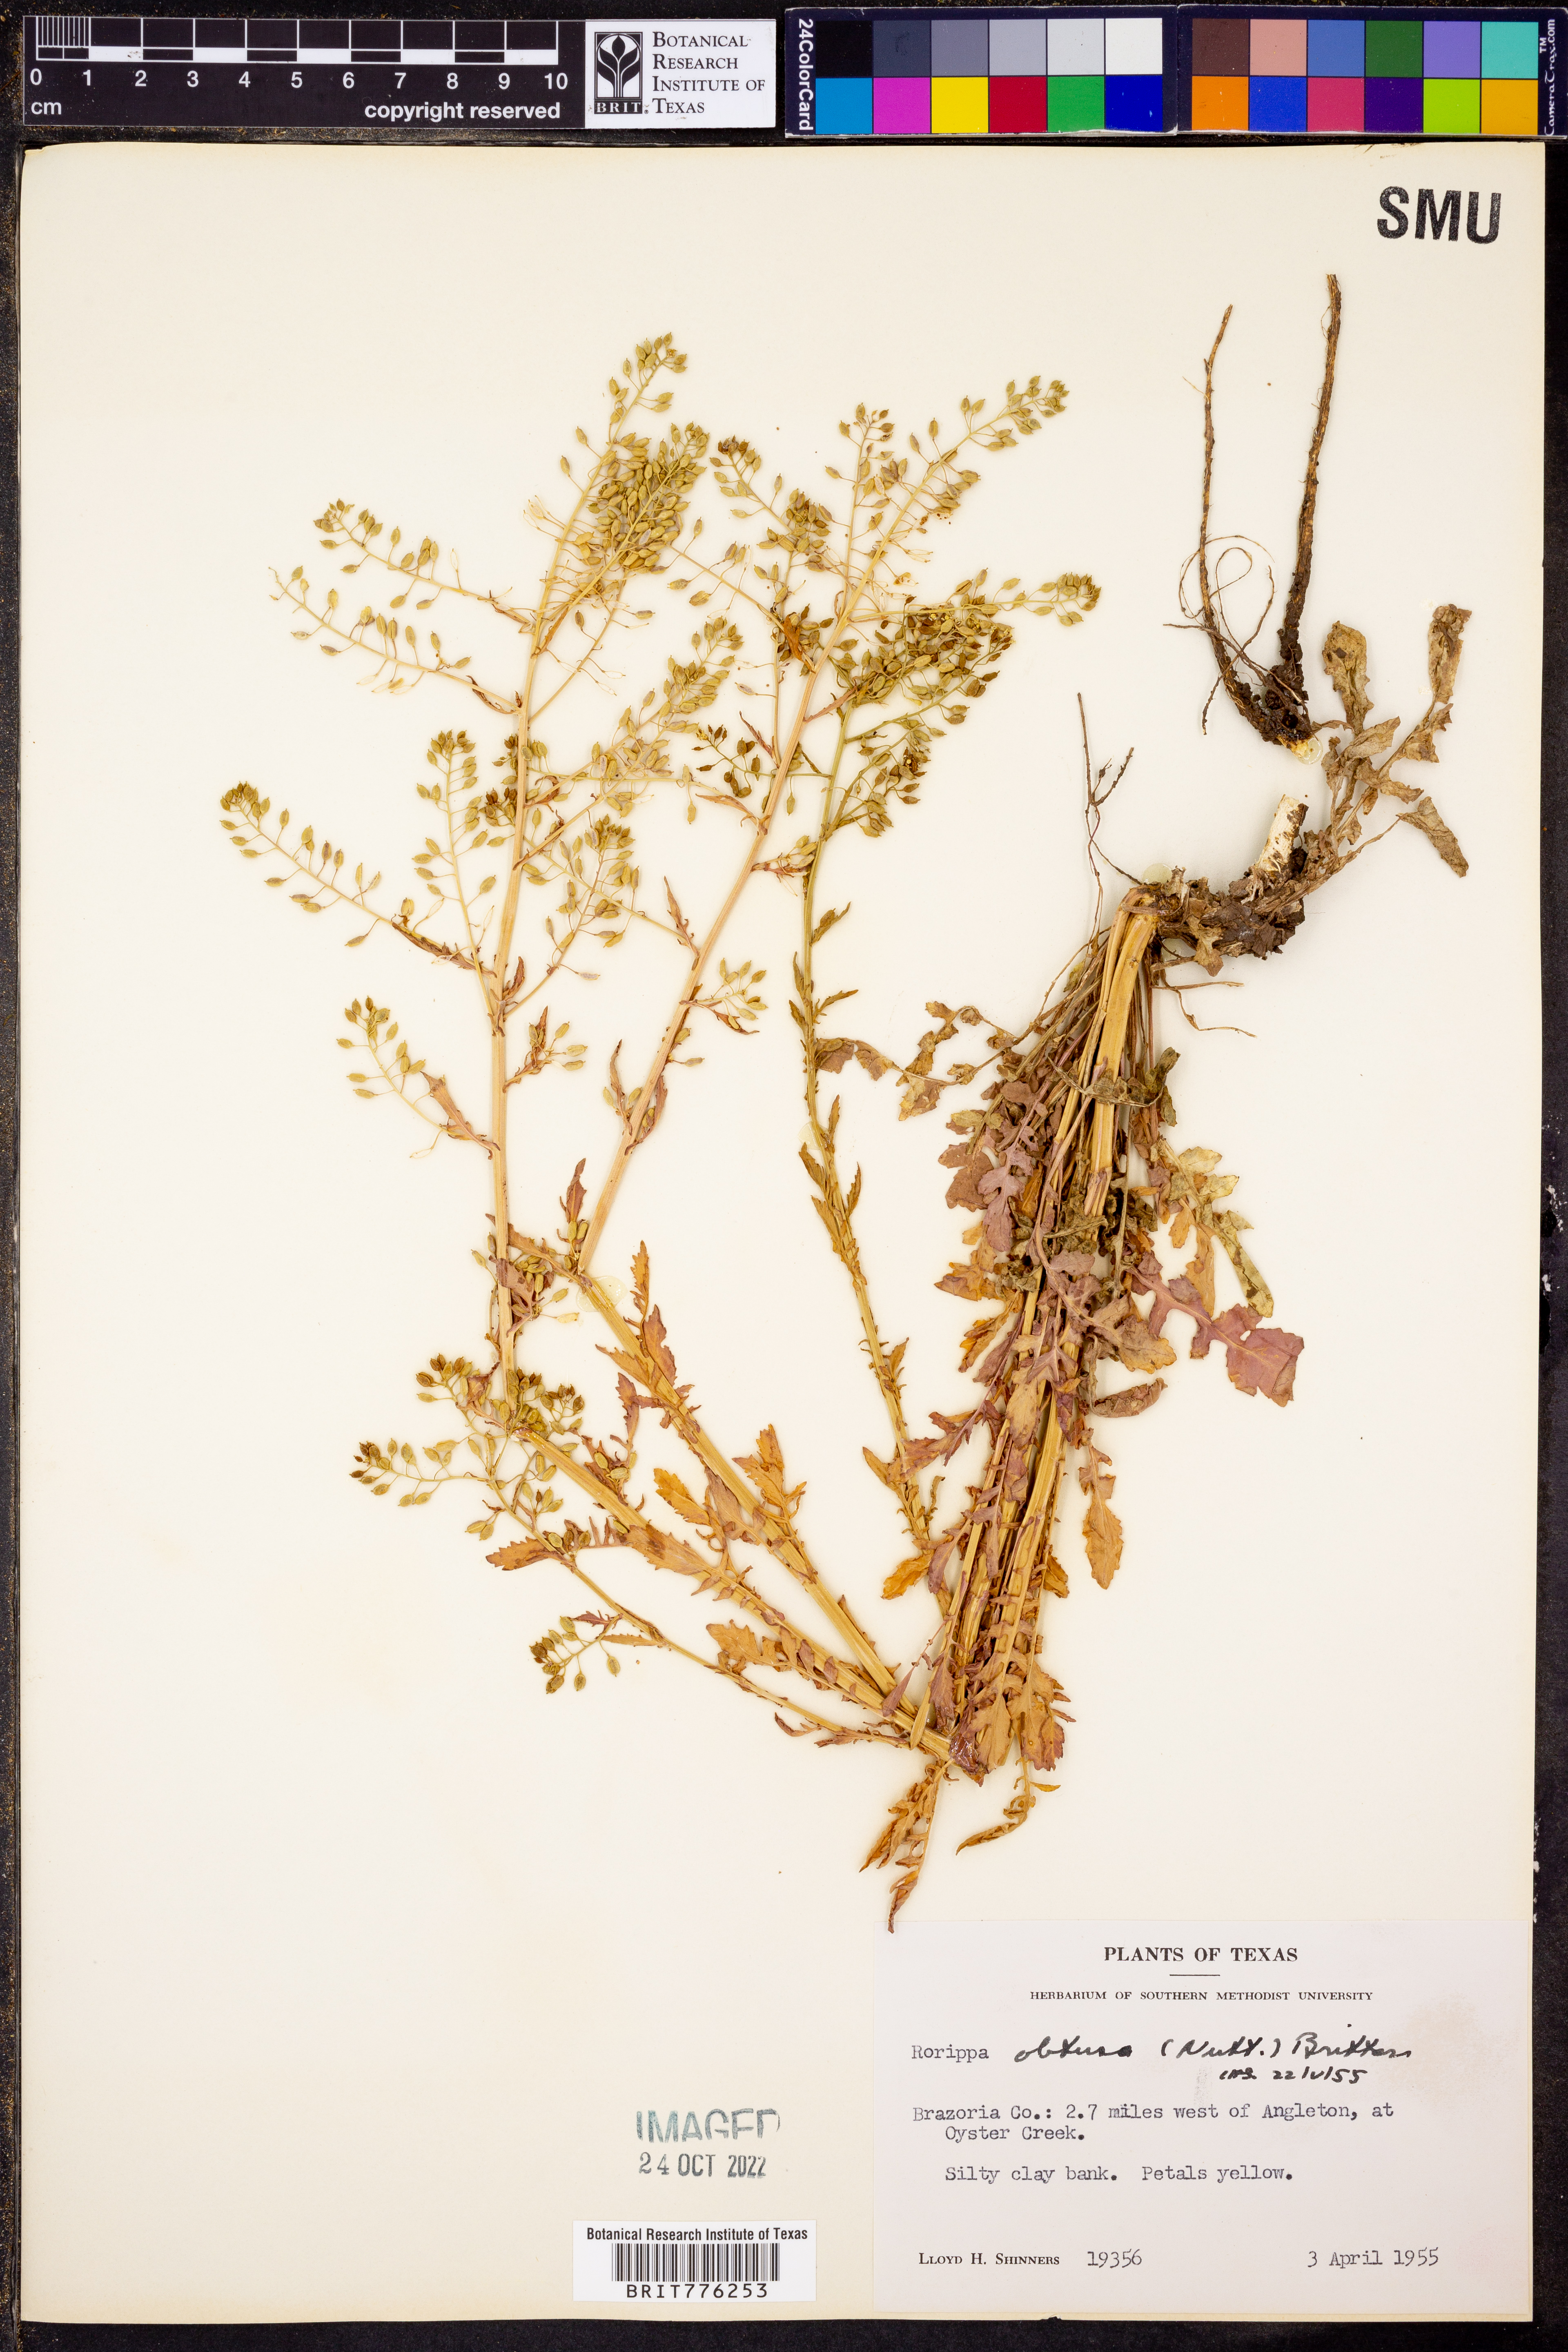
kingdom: Plantae
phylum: Tracheophyta
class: Magnoliopsida
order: Brassicales
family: Brassicaceae
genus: Rorippa
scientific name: Rorippa teres
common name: Southern marsh yellowcress
